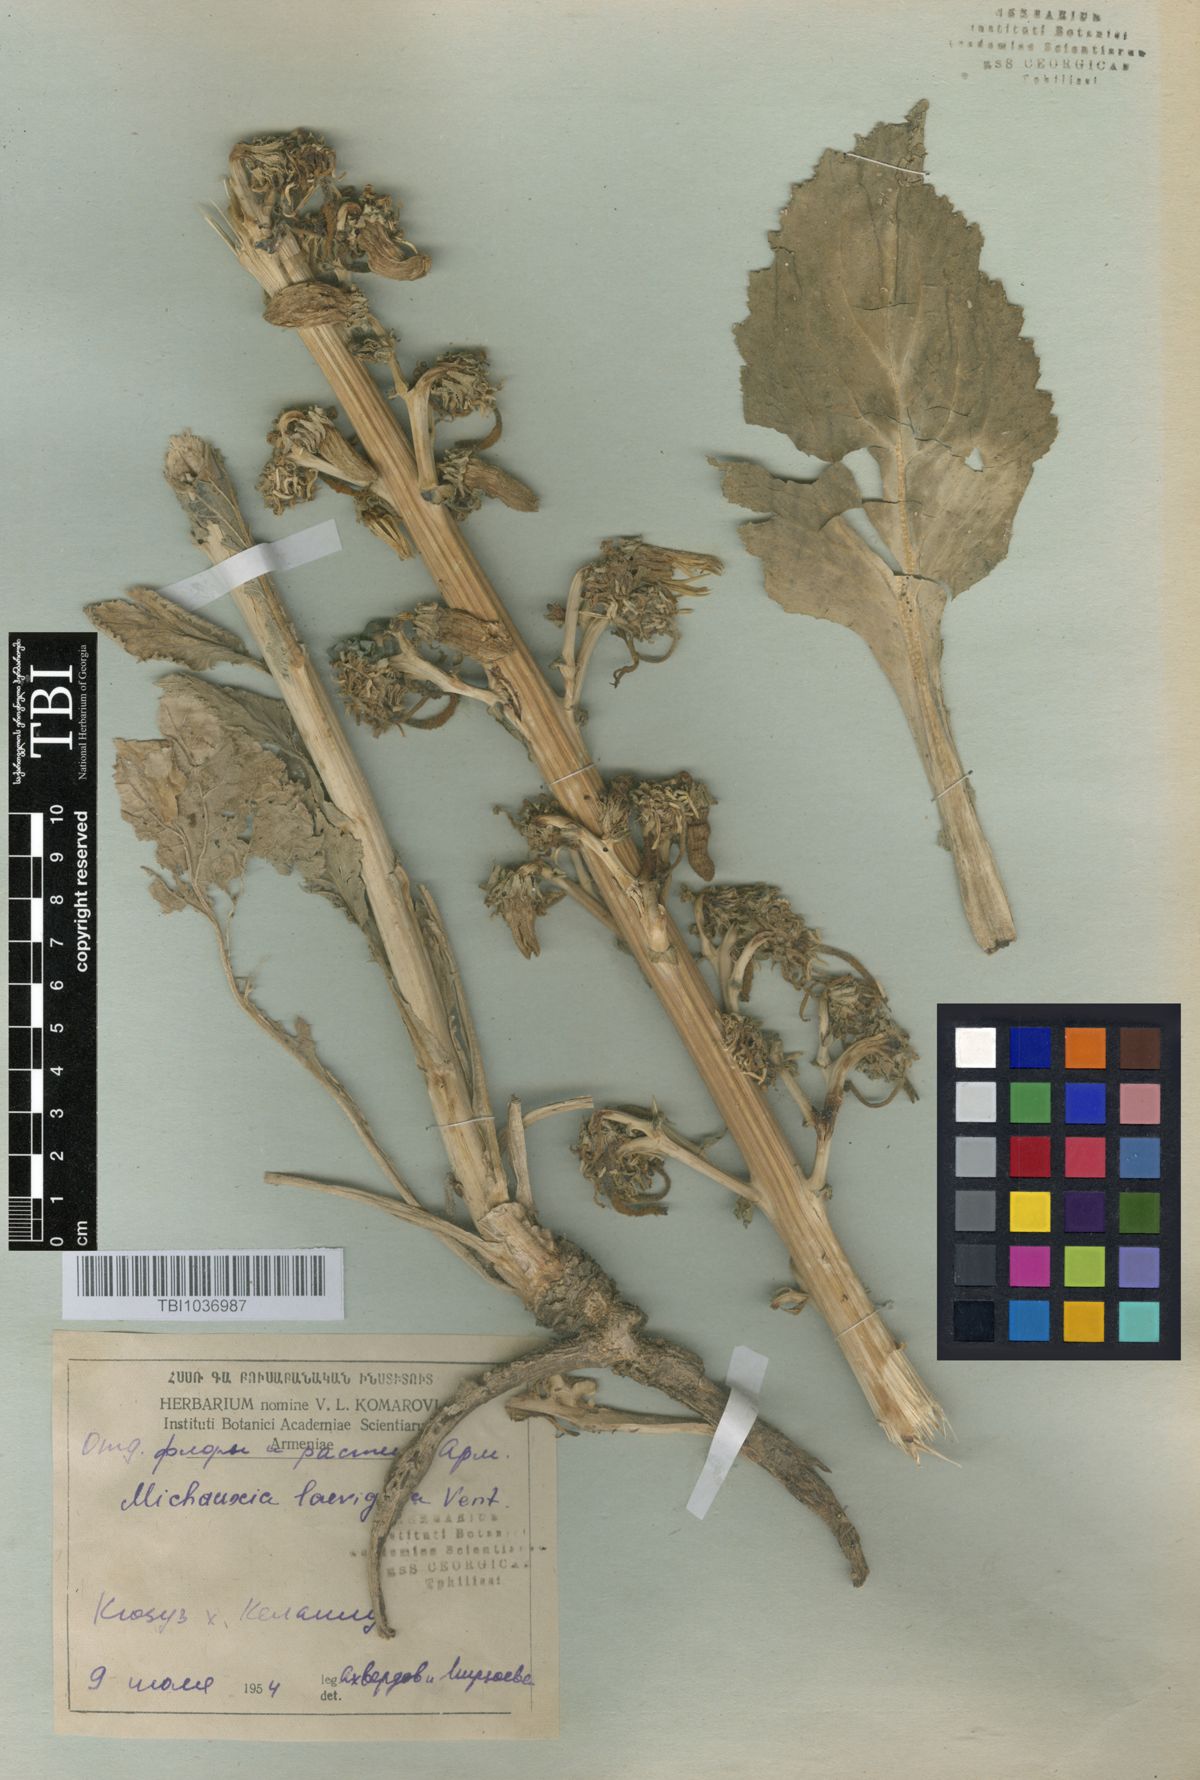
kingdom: Plantae
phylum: Tracheophyta
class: Magnoliopsida
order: Asterales
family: Campanulaceae
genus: Michauxia
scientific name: Michauxia laevigata
